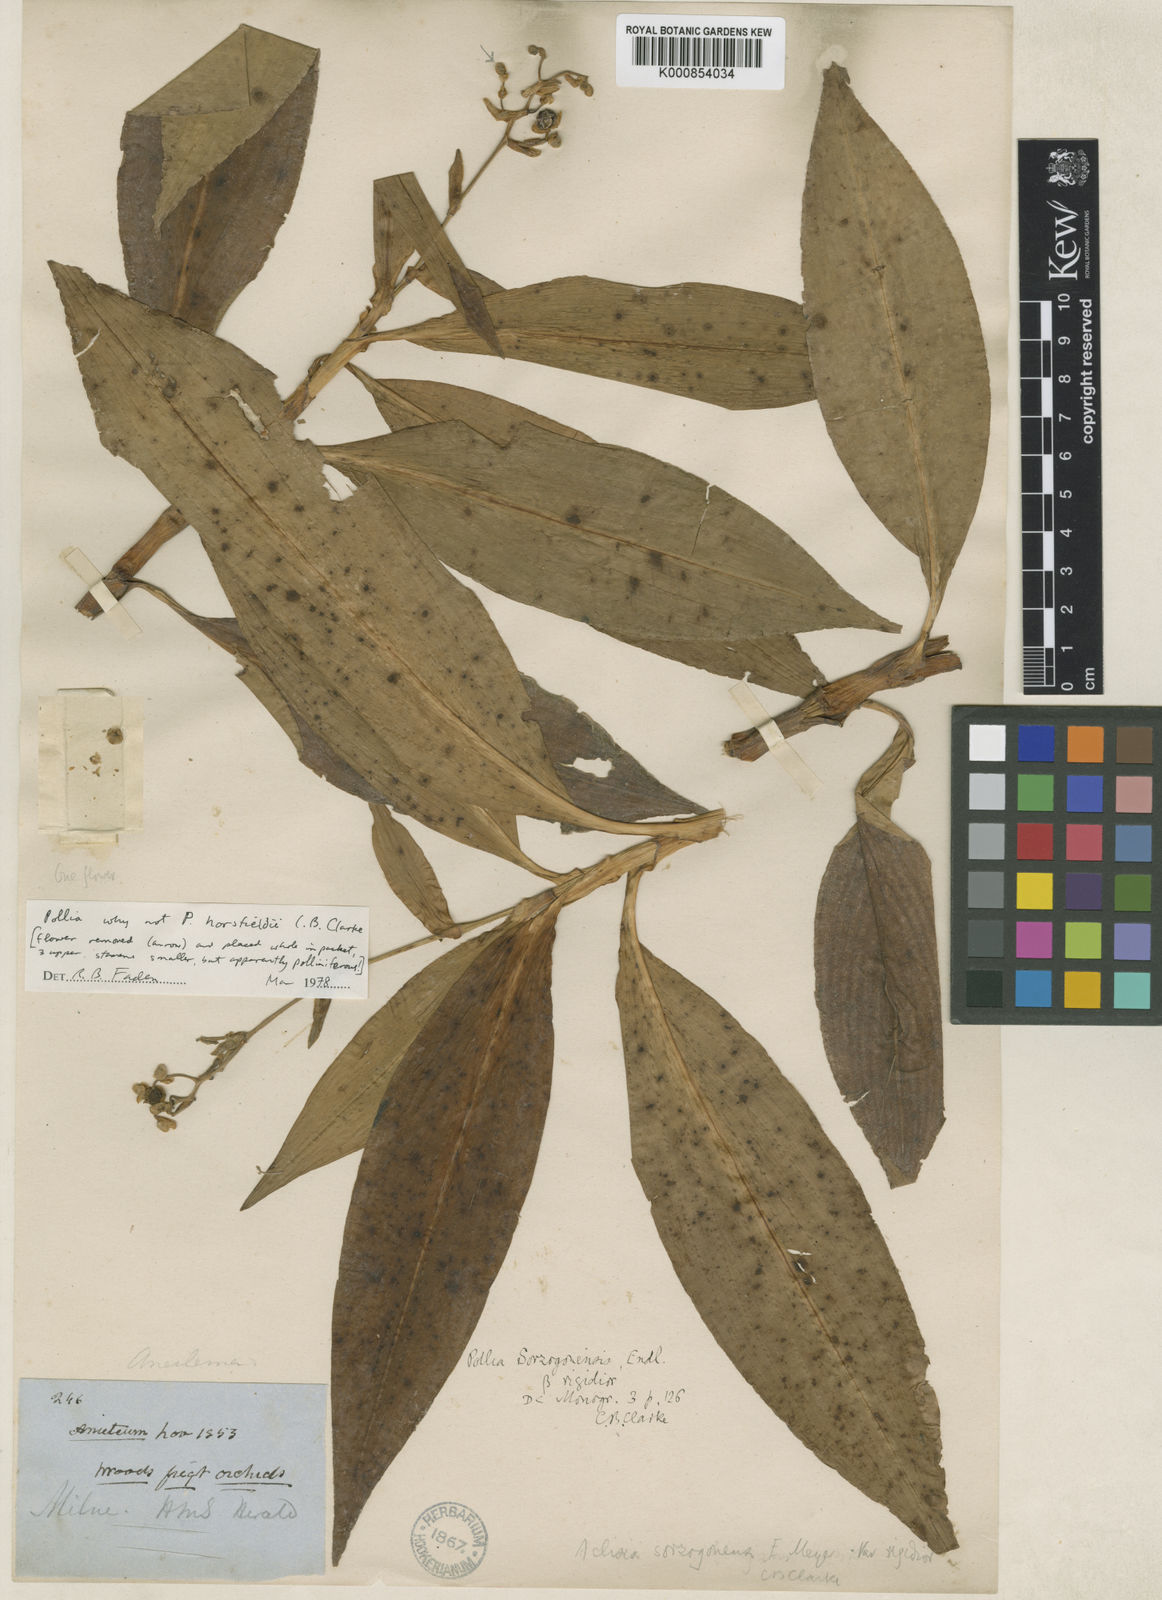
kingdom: Plantae
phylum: Tracheophyta
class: Liliopsida
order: Commelinales
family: Commelinaceae
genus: Pollia
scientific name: Pollia secundiflora
